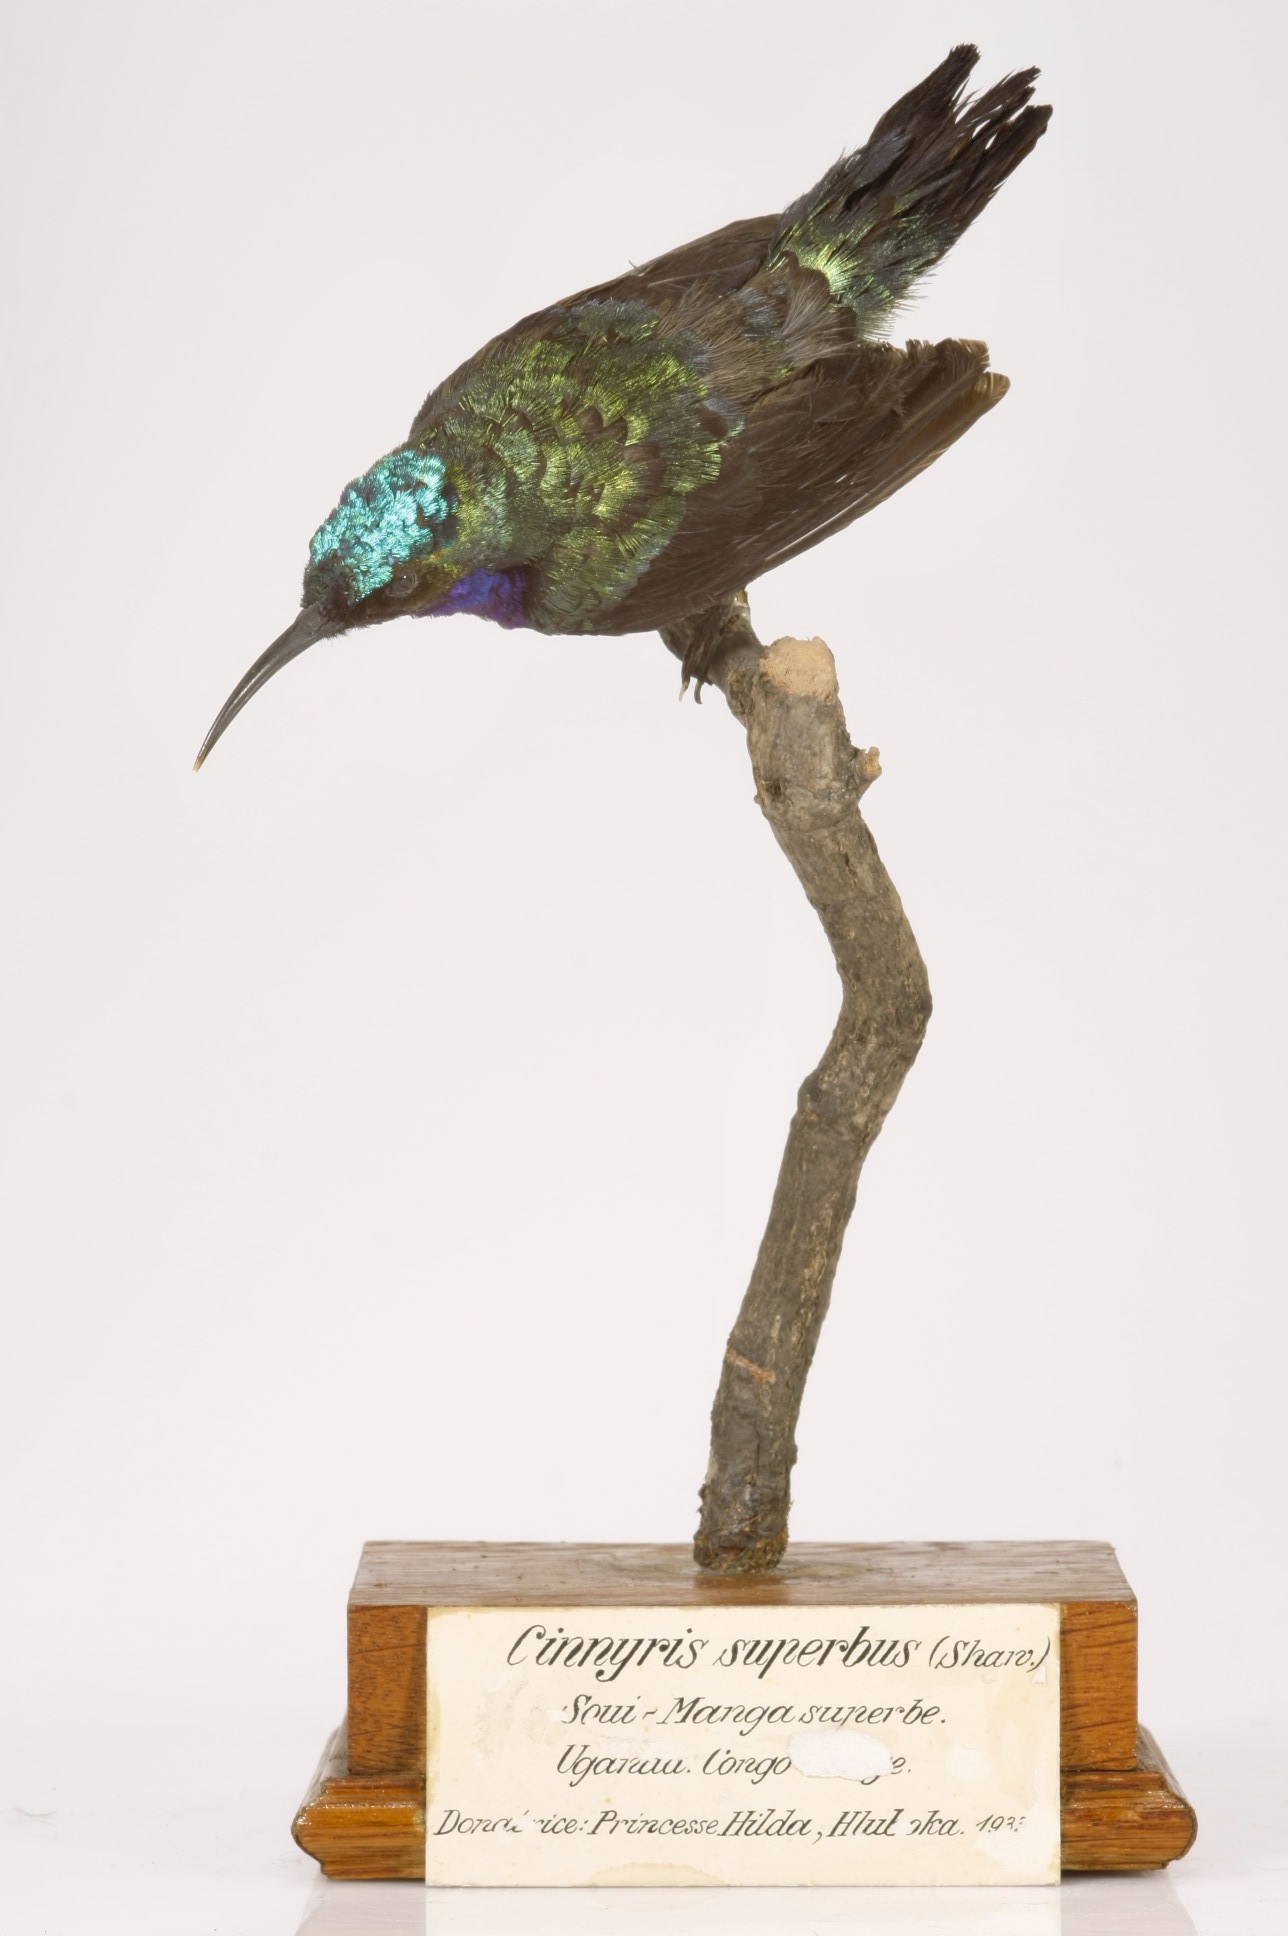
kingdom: Animalia
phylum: Chordata
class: Aves
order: Passeriformes
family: Nectariniidae
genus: Cinnyris
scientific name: Cinnyris superbus
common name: Superb sunbird
